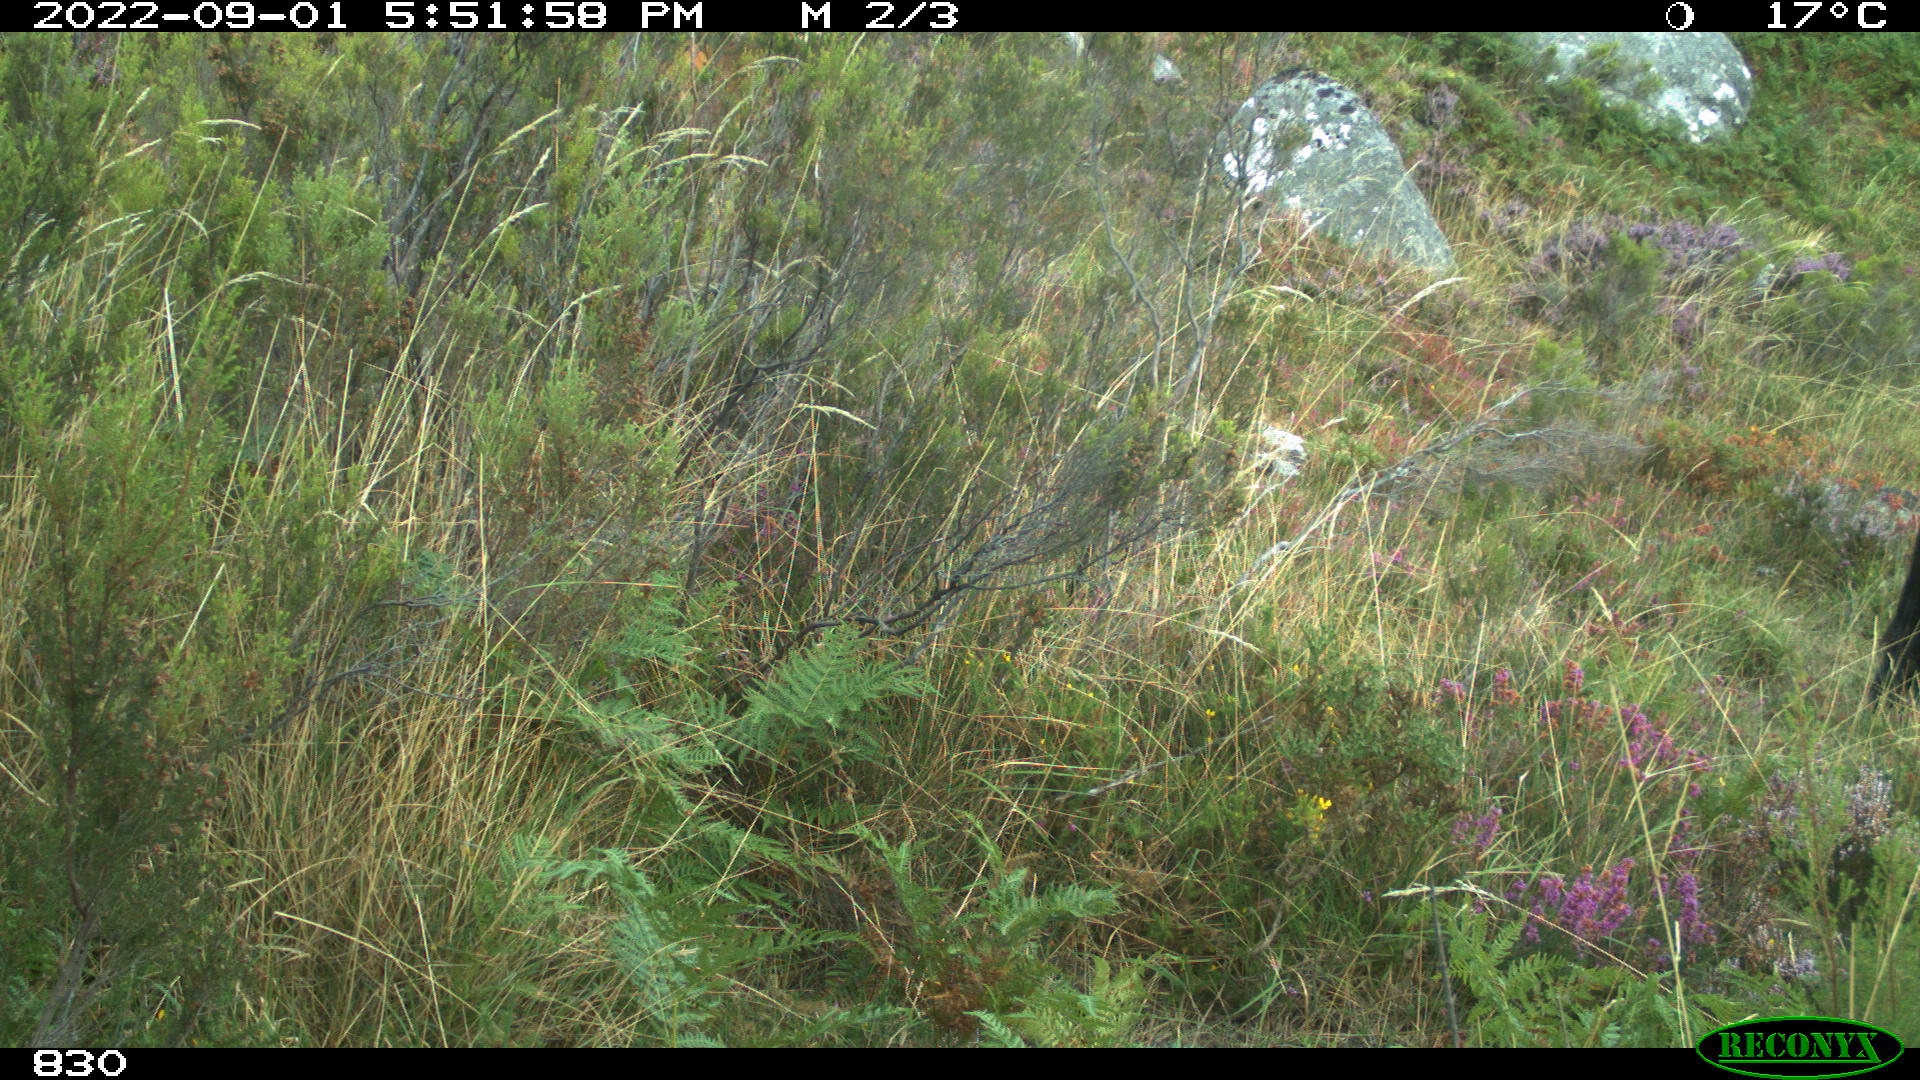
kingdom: Animalia
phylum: Chordata
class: Mammalia
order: Artiodactyla
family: Bovidae
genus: Bos
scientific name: Bos taurus
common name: Domesticated cattle
